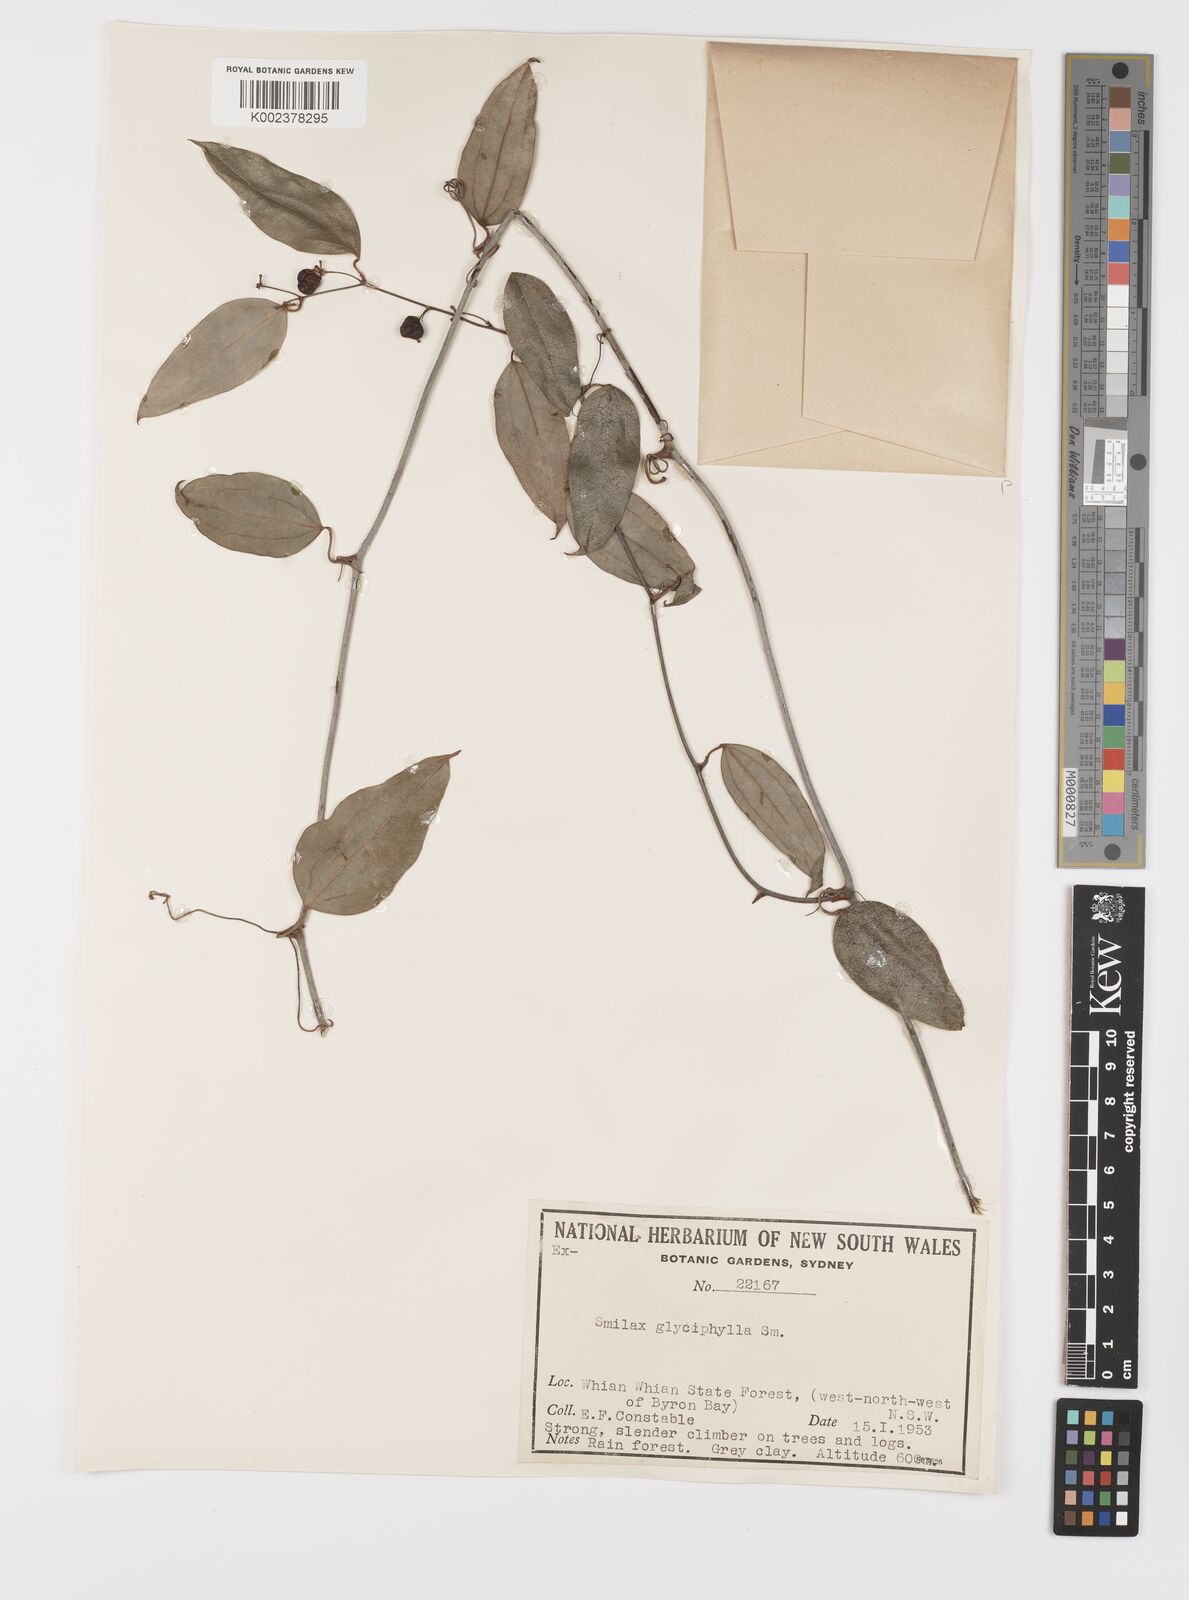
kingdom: Plantae
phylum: Tracheophyta
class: Liliopsida
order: Liliales
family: Smilacaceae
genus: Smilax
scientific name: Smilax
